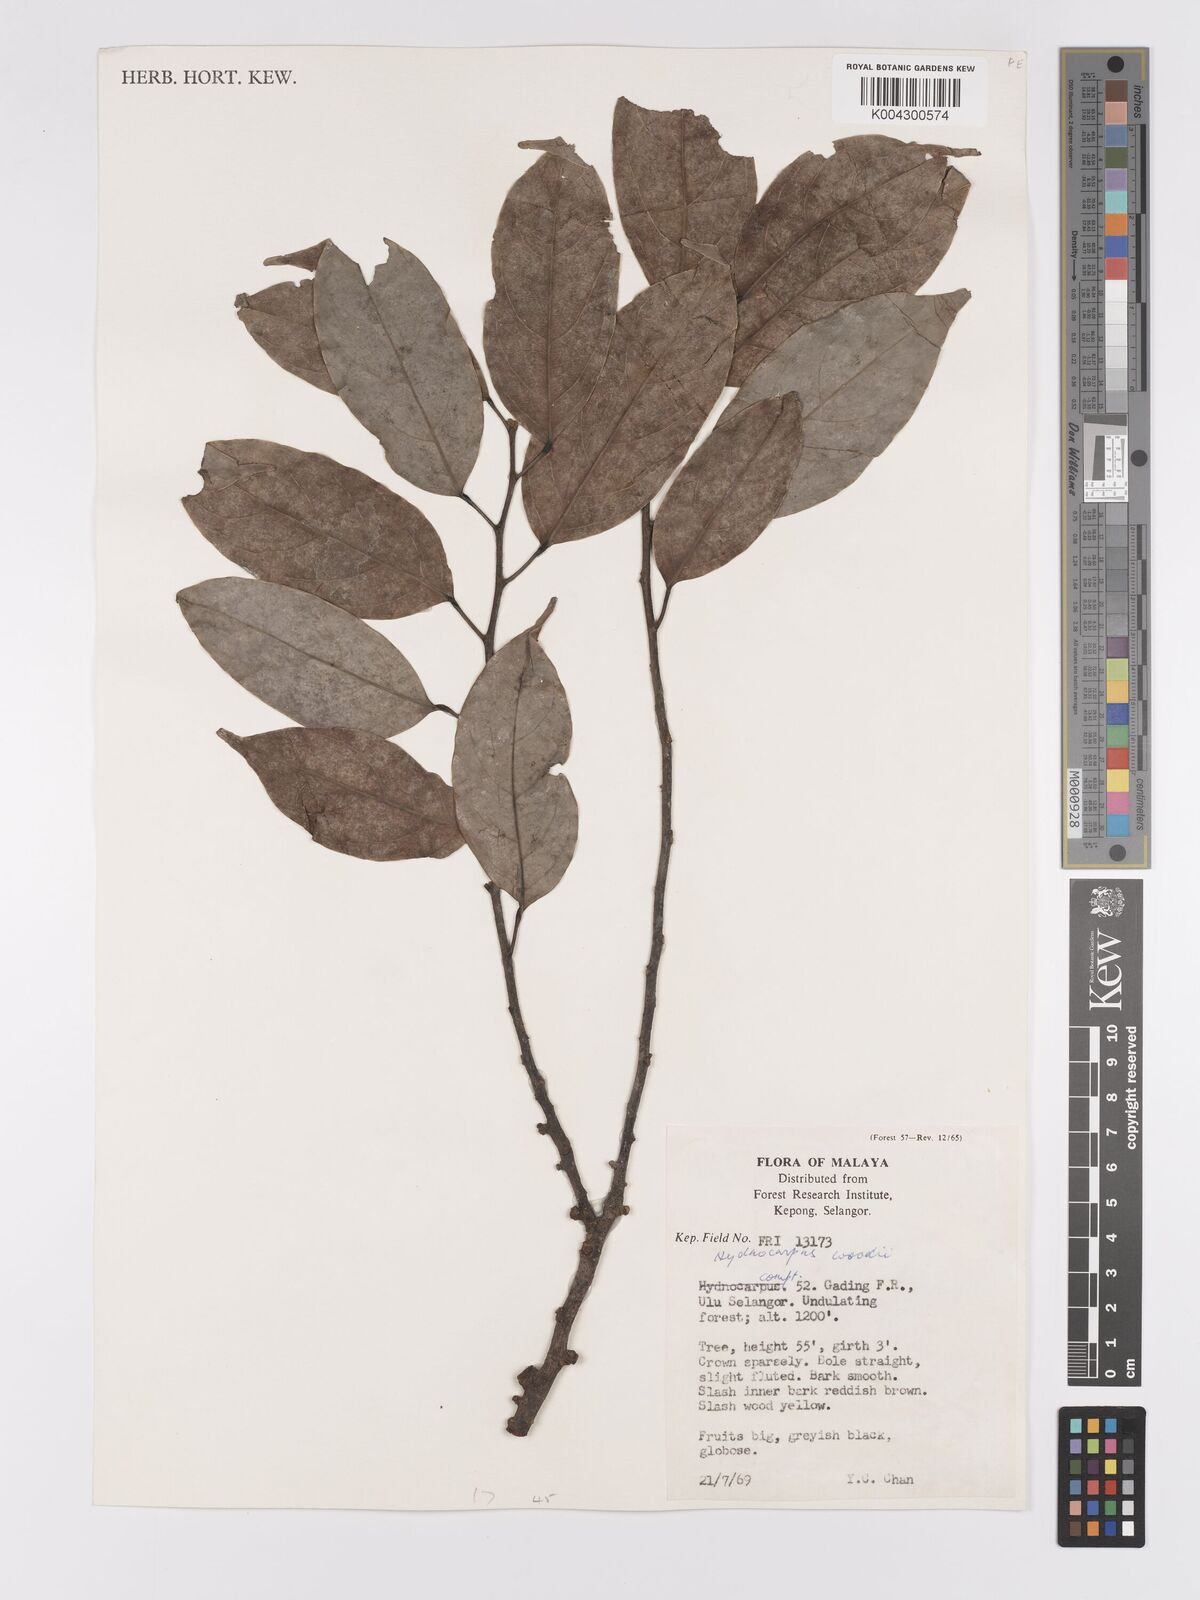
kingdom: Plantae
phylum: Tracheophyta
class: Magnoliopsida
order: Malpighiales
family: Achariaceae
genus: Hydnocarpus
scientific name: Hydnocarpus woodii
